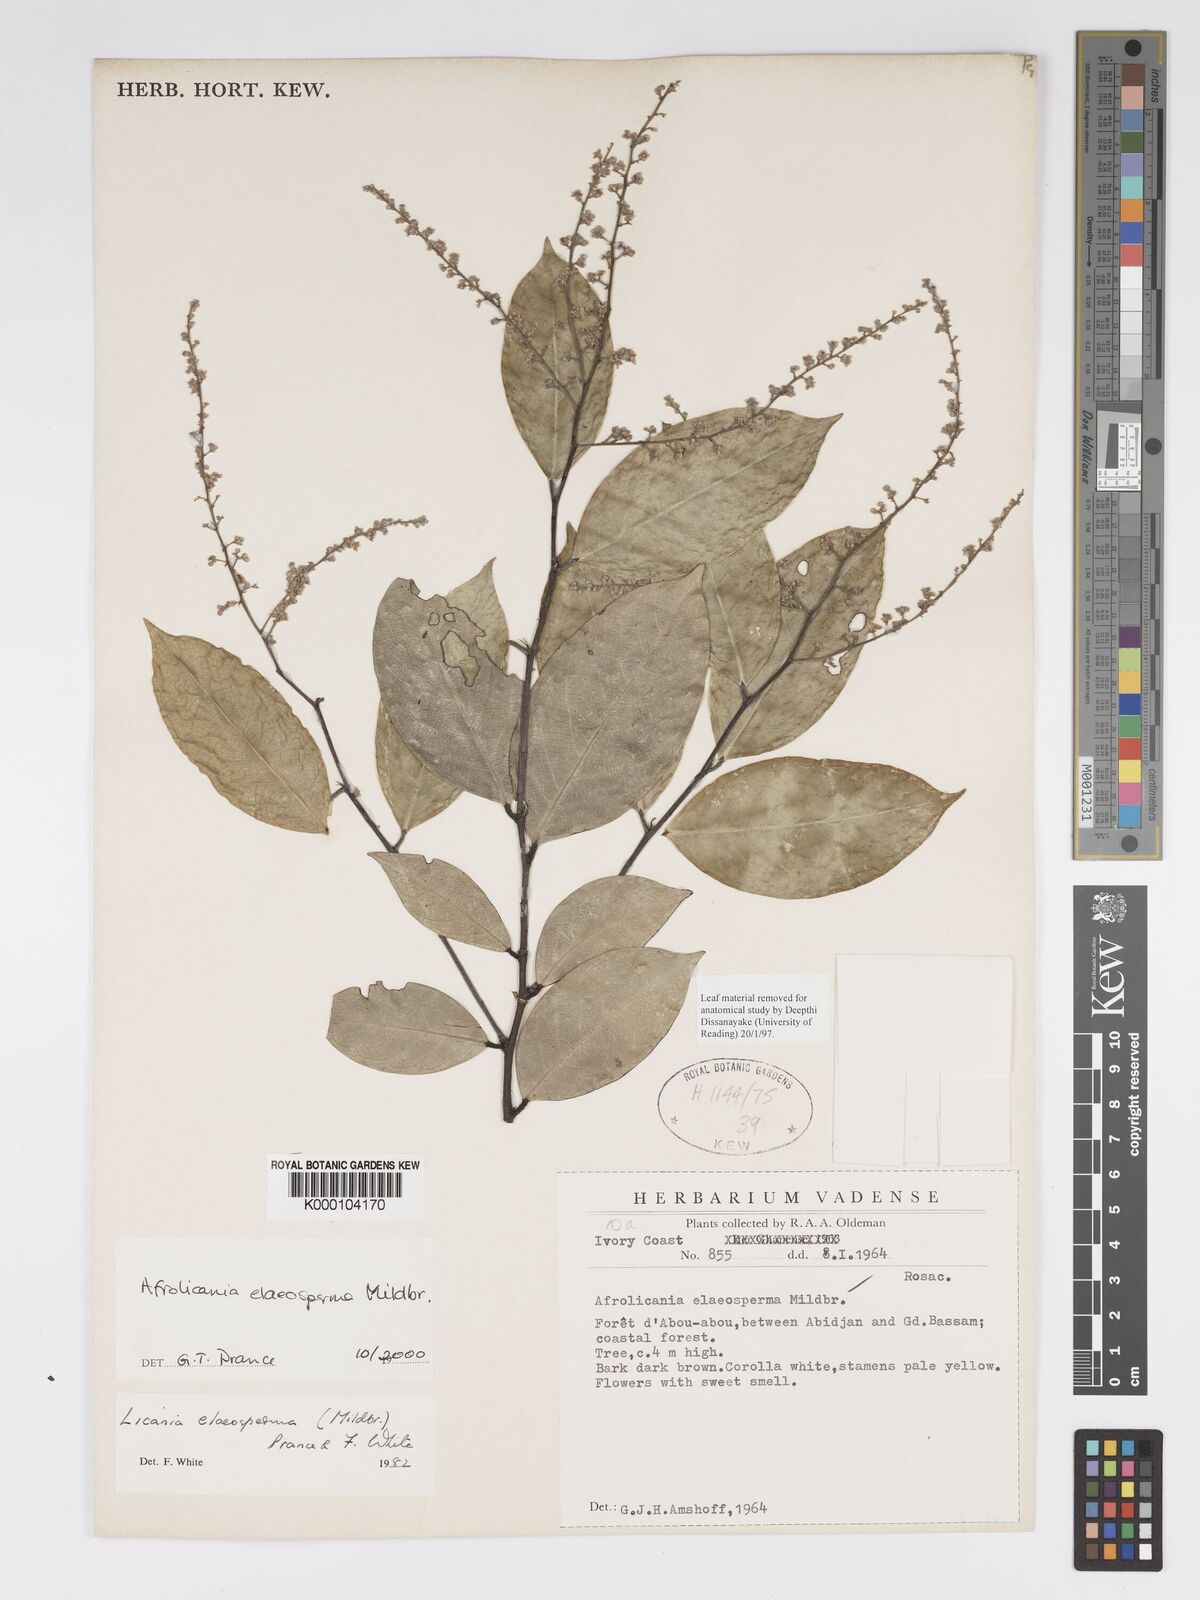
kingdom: Plantae
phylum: Tracheophyta
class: Magnoliopsida
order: Malpighiales
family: Chrysobalanaceae
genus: Afrolicania
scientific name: Afrolicania elaeosperma
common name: Nikko
